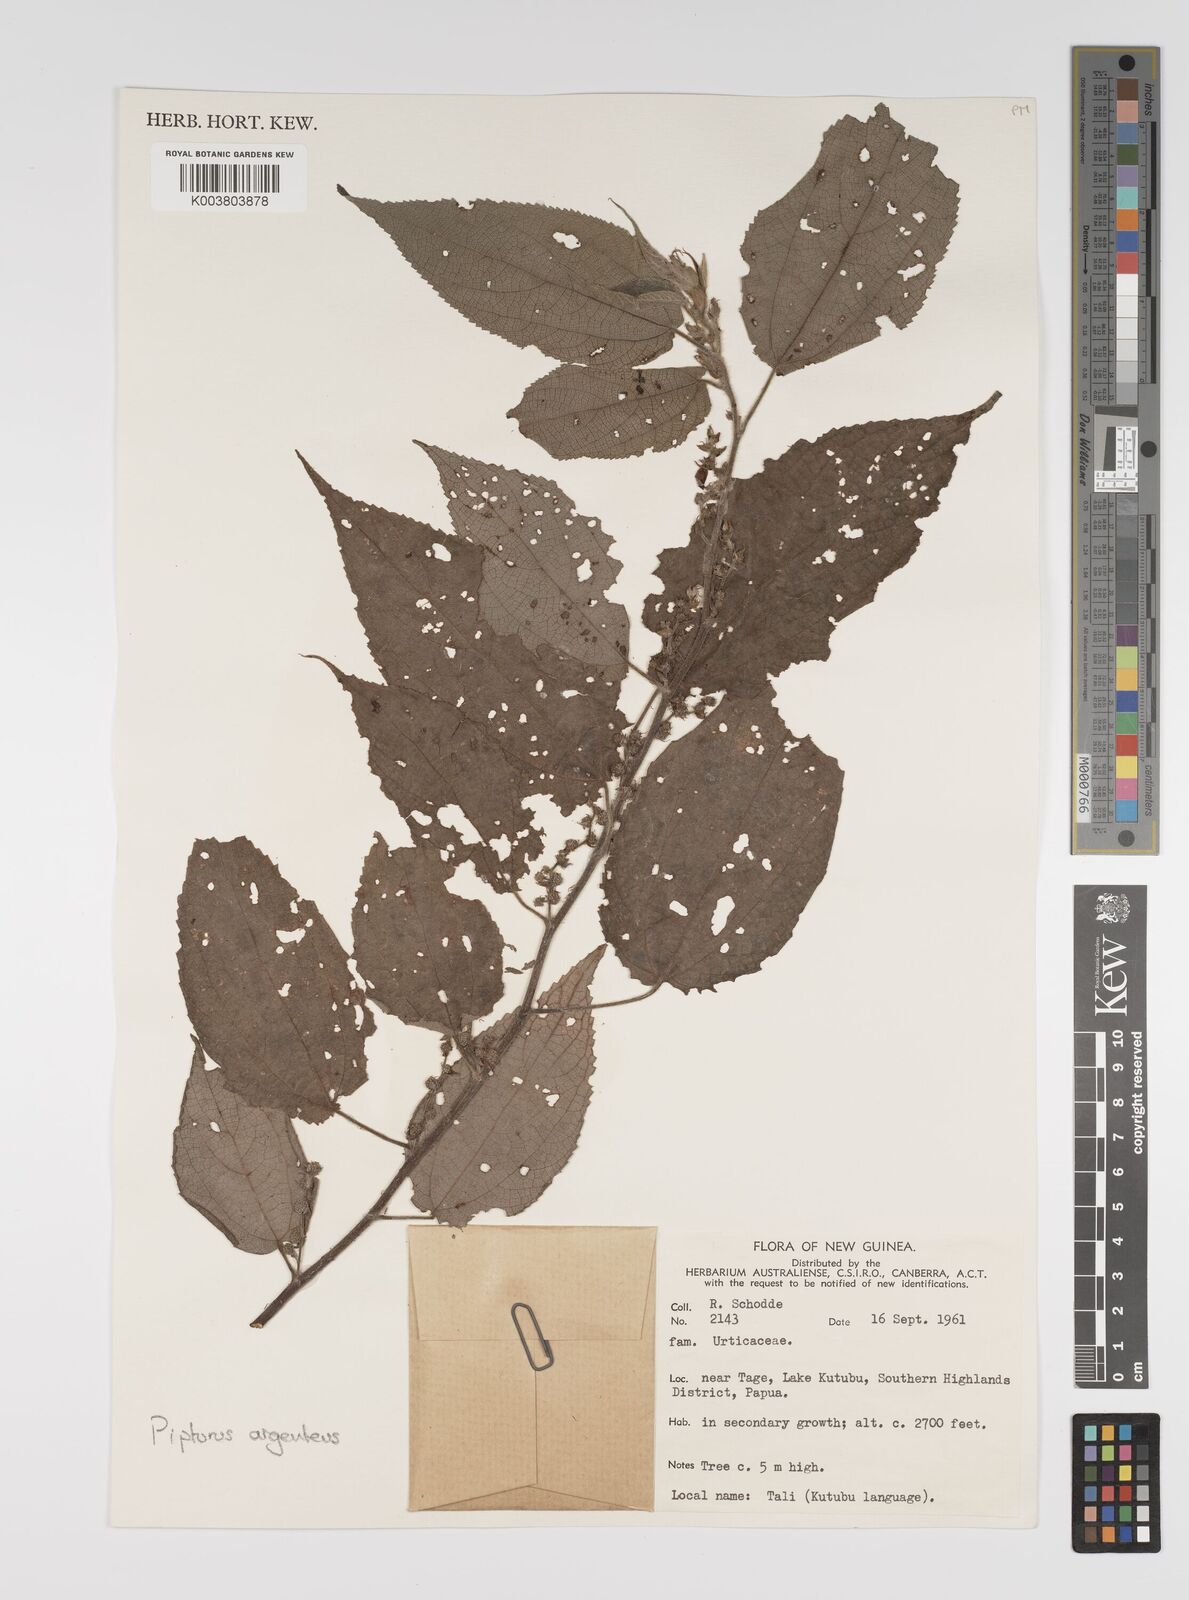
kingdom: Plantae
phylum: Tracheophyta
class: Magnoliopsida
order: Rosales
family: Urticaceae
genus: Pipturus
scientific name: Pipturus argenteus
